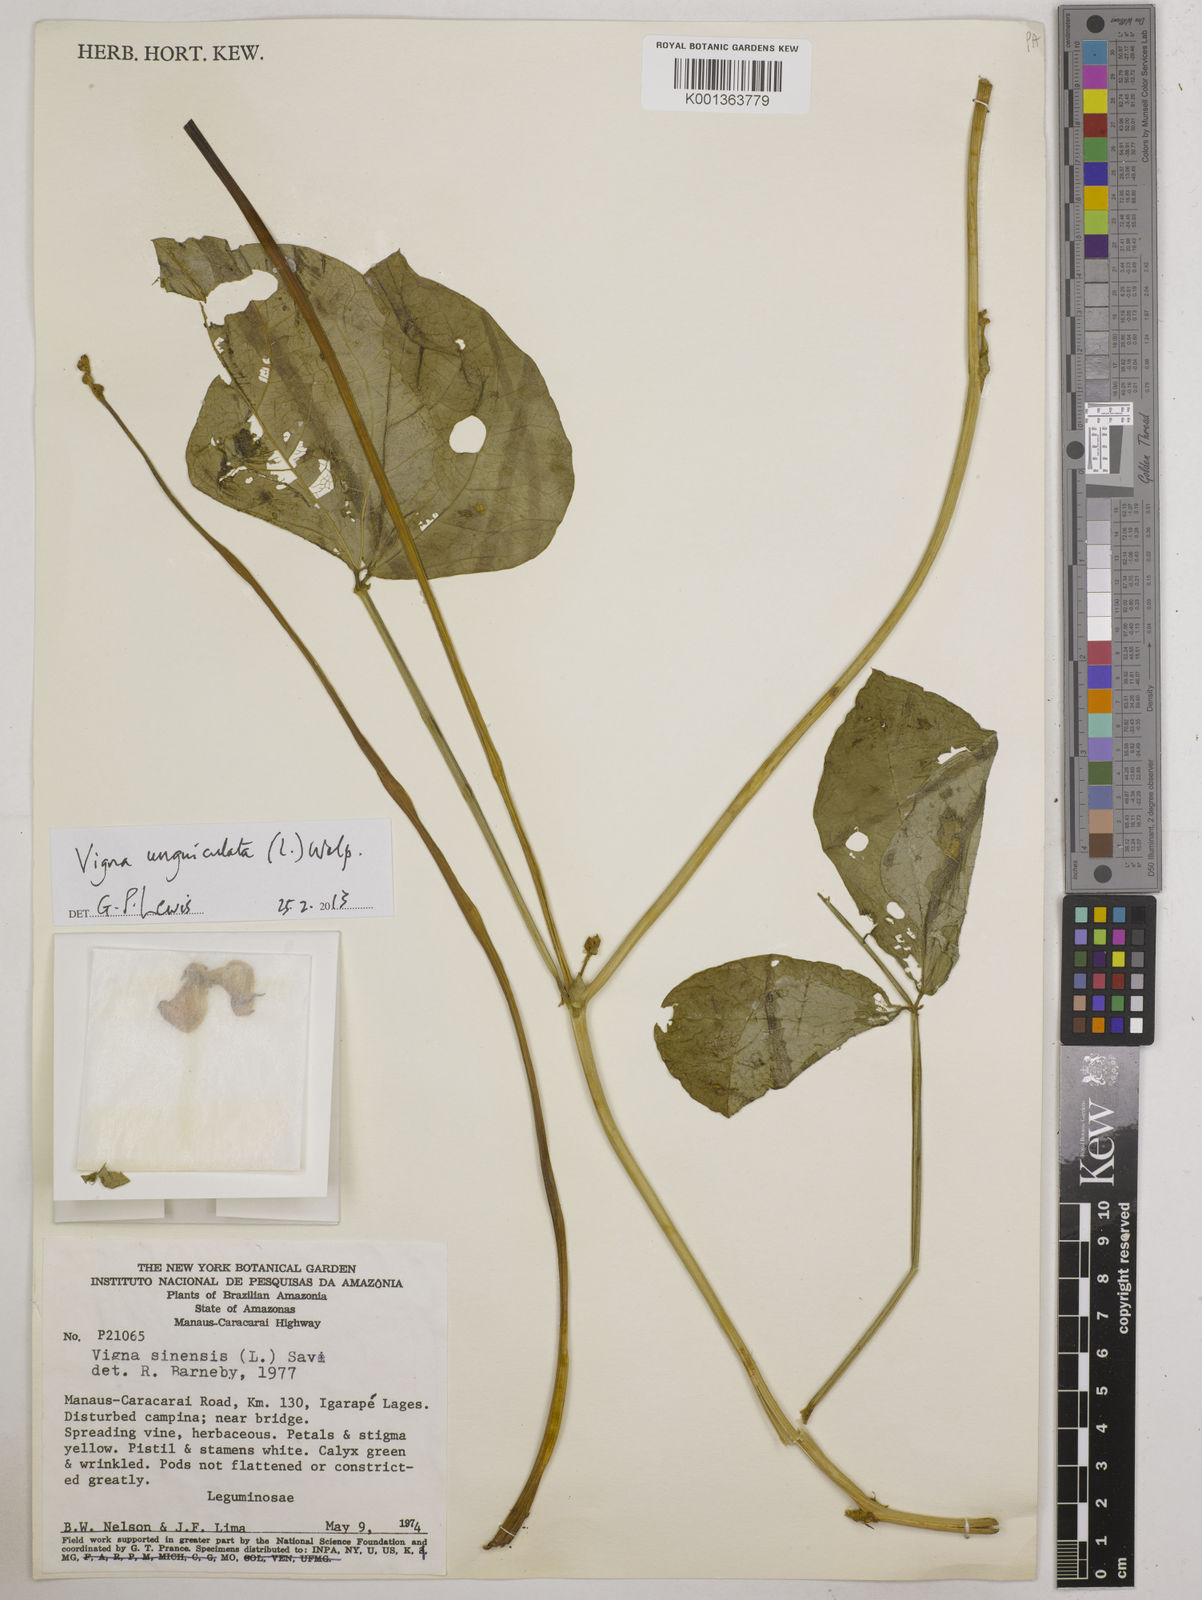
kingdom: Plantae
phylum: Tracheophyta
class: Magnoliopsida
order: Fabales
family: Fabaceae
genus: Vigna
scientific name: Vigna unguiculata
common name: Cowpea
